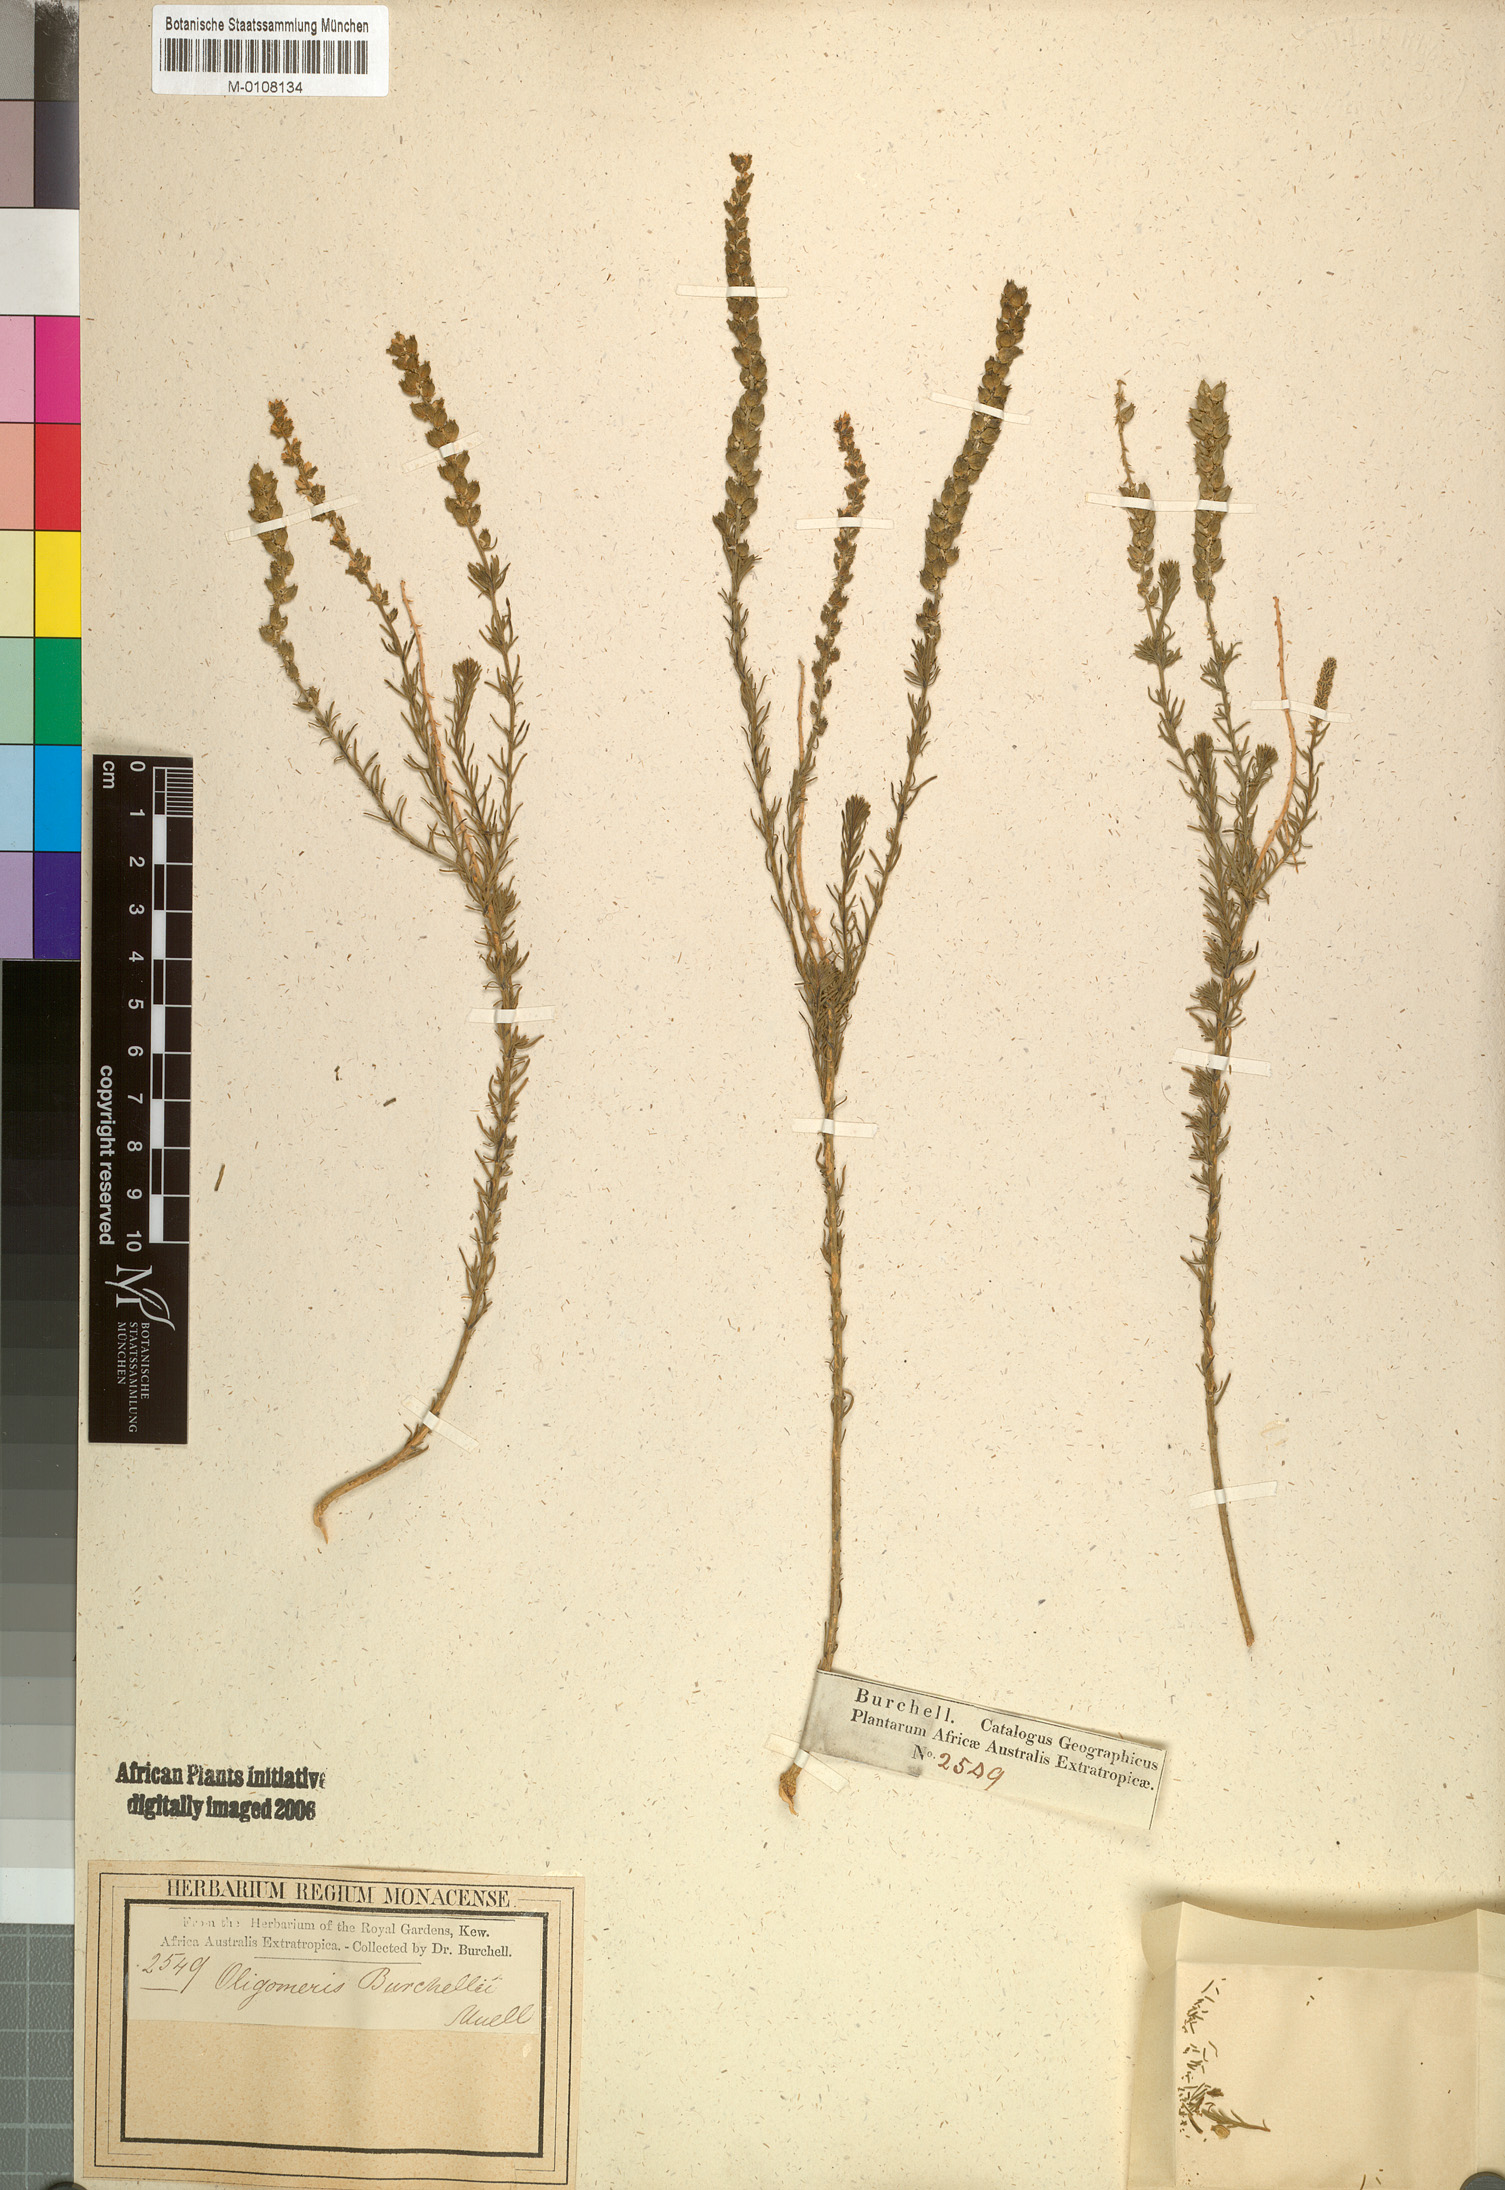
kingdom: Plantae
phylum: Tracheophyta
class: Magnoliopsida
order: Brassicales
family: Resedaceae
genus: Oligomeris
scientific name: Oligomeris dipetala
